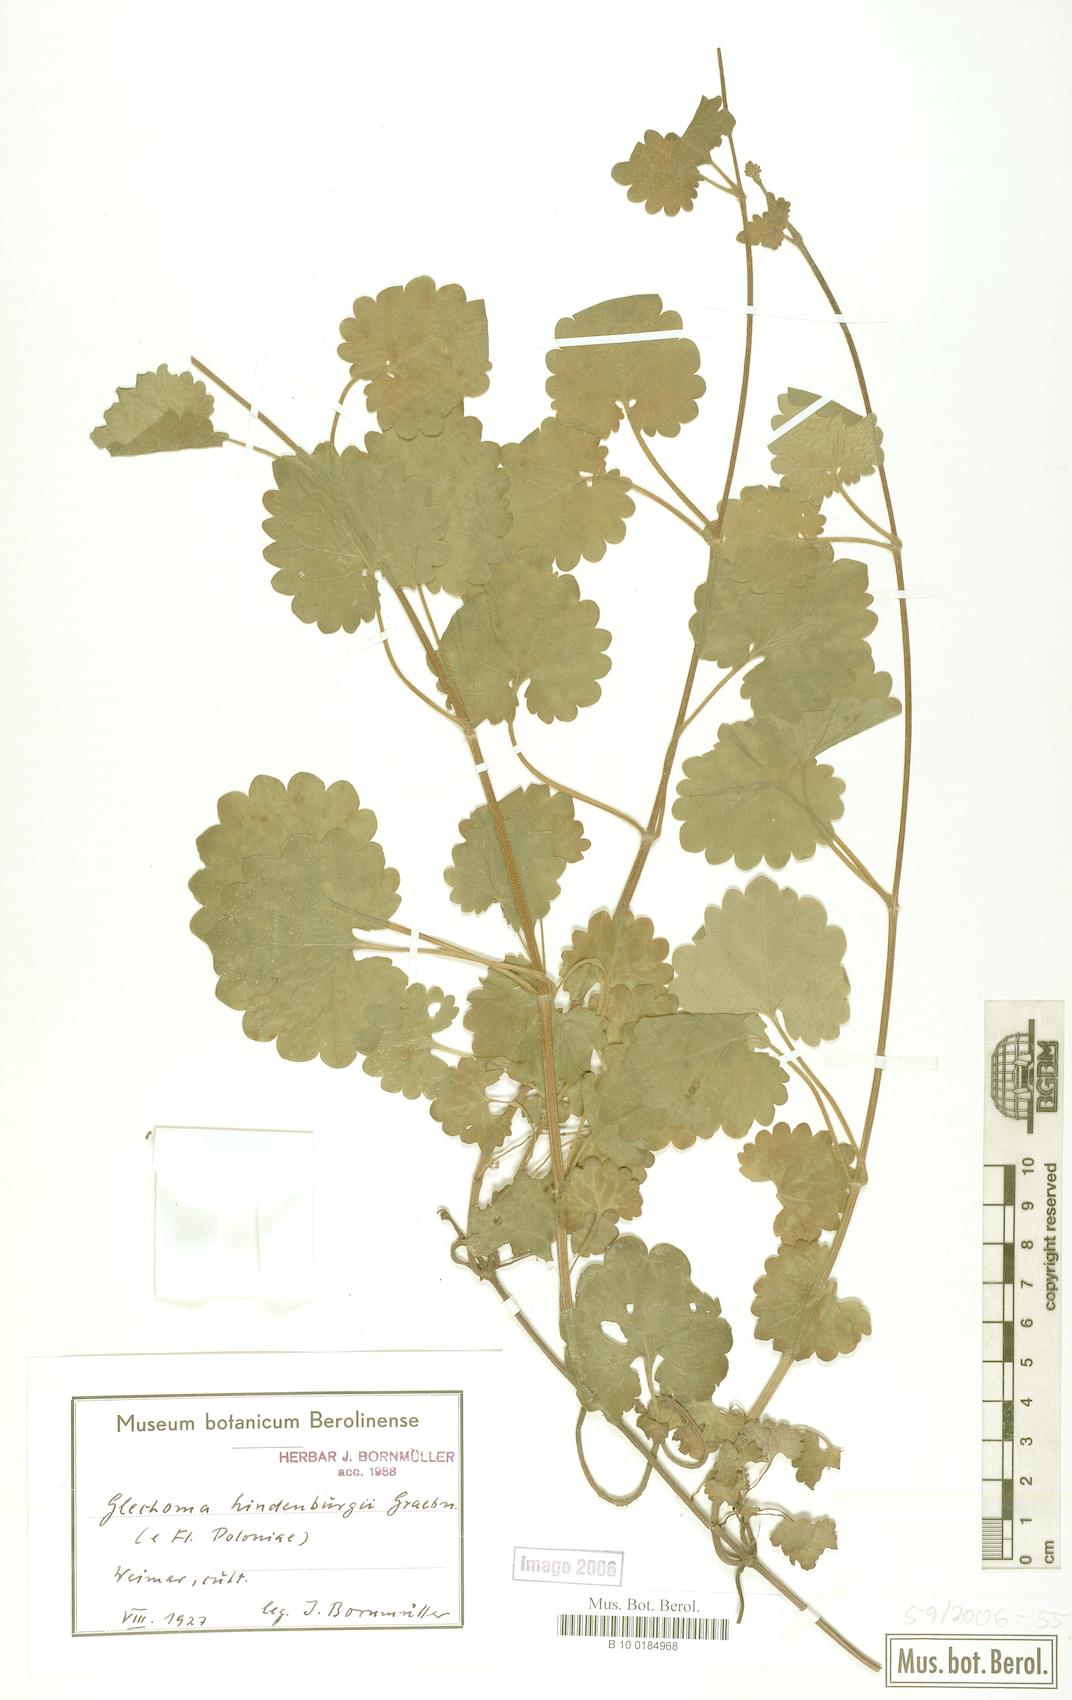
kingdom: Plantae
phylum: Tracheophyta
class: Magnoliopsida
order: Lamiales
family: Lamiaceae
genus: Glechoma
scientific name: Glechoma pannonica
